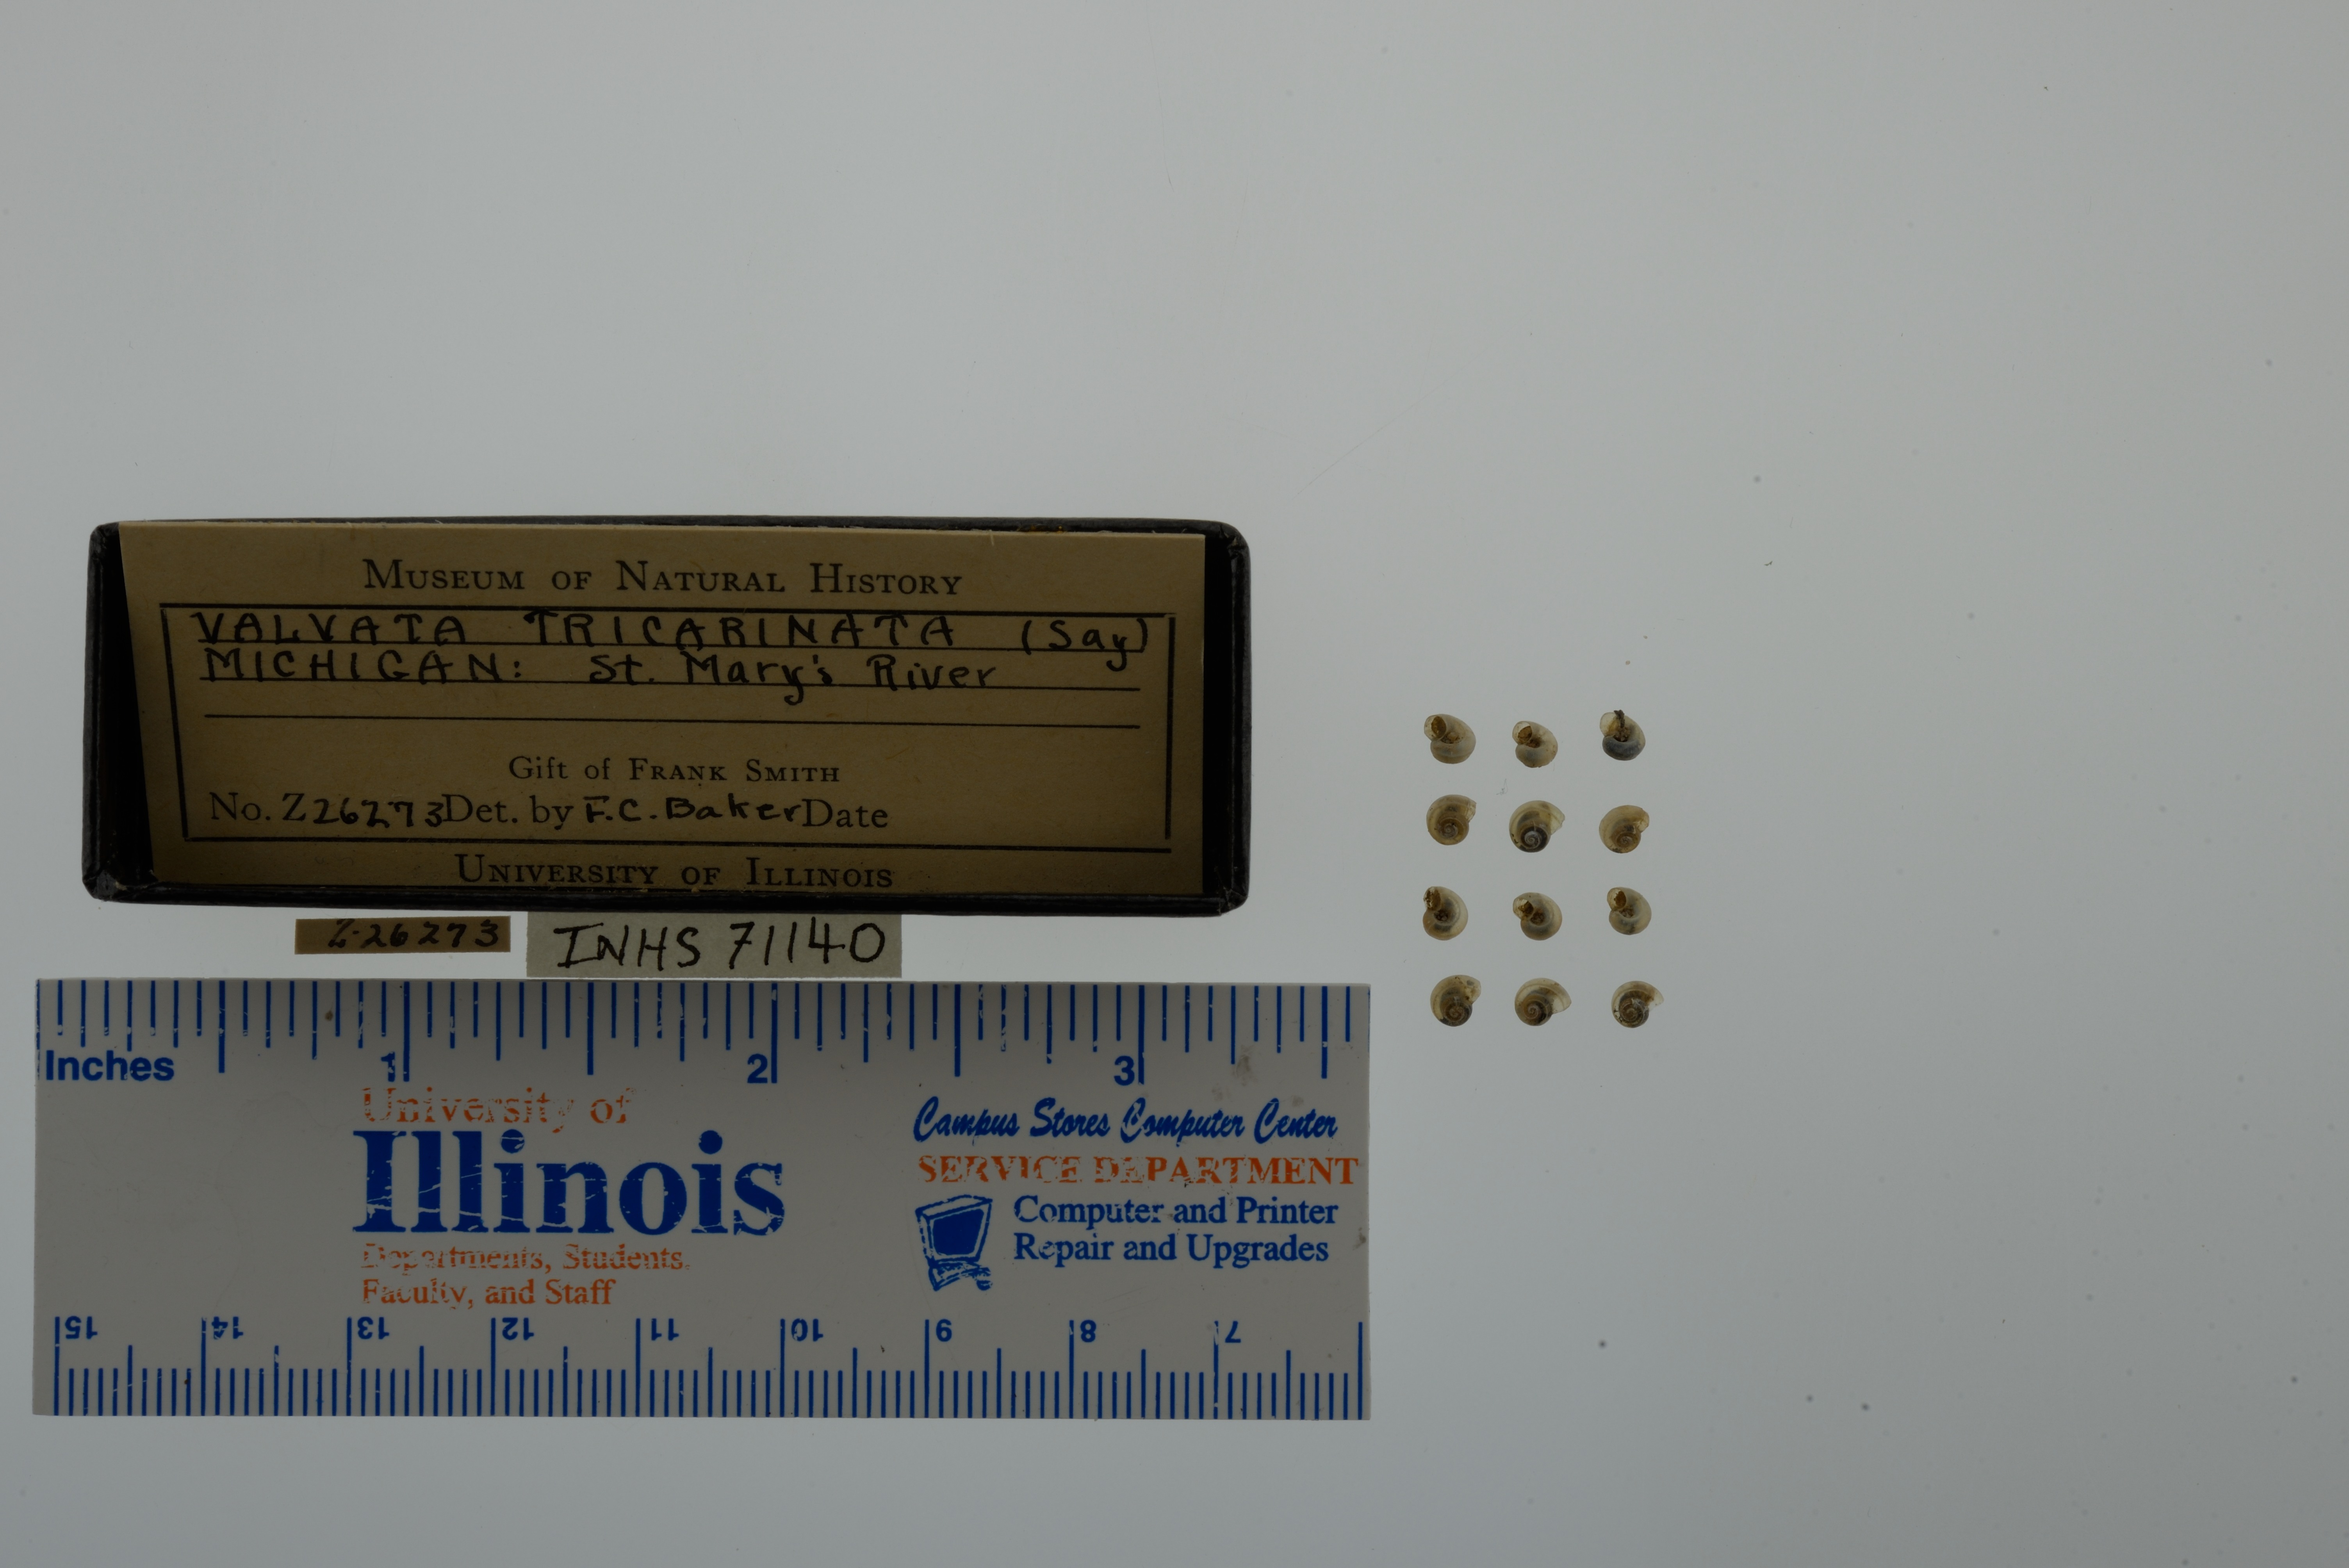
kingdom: Animalia
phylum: Mollusca
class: Gastropoda
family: Valvatidae
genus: Valvata
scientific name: Valvata tricarinata
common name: Three-ridge valvata
